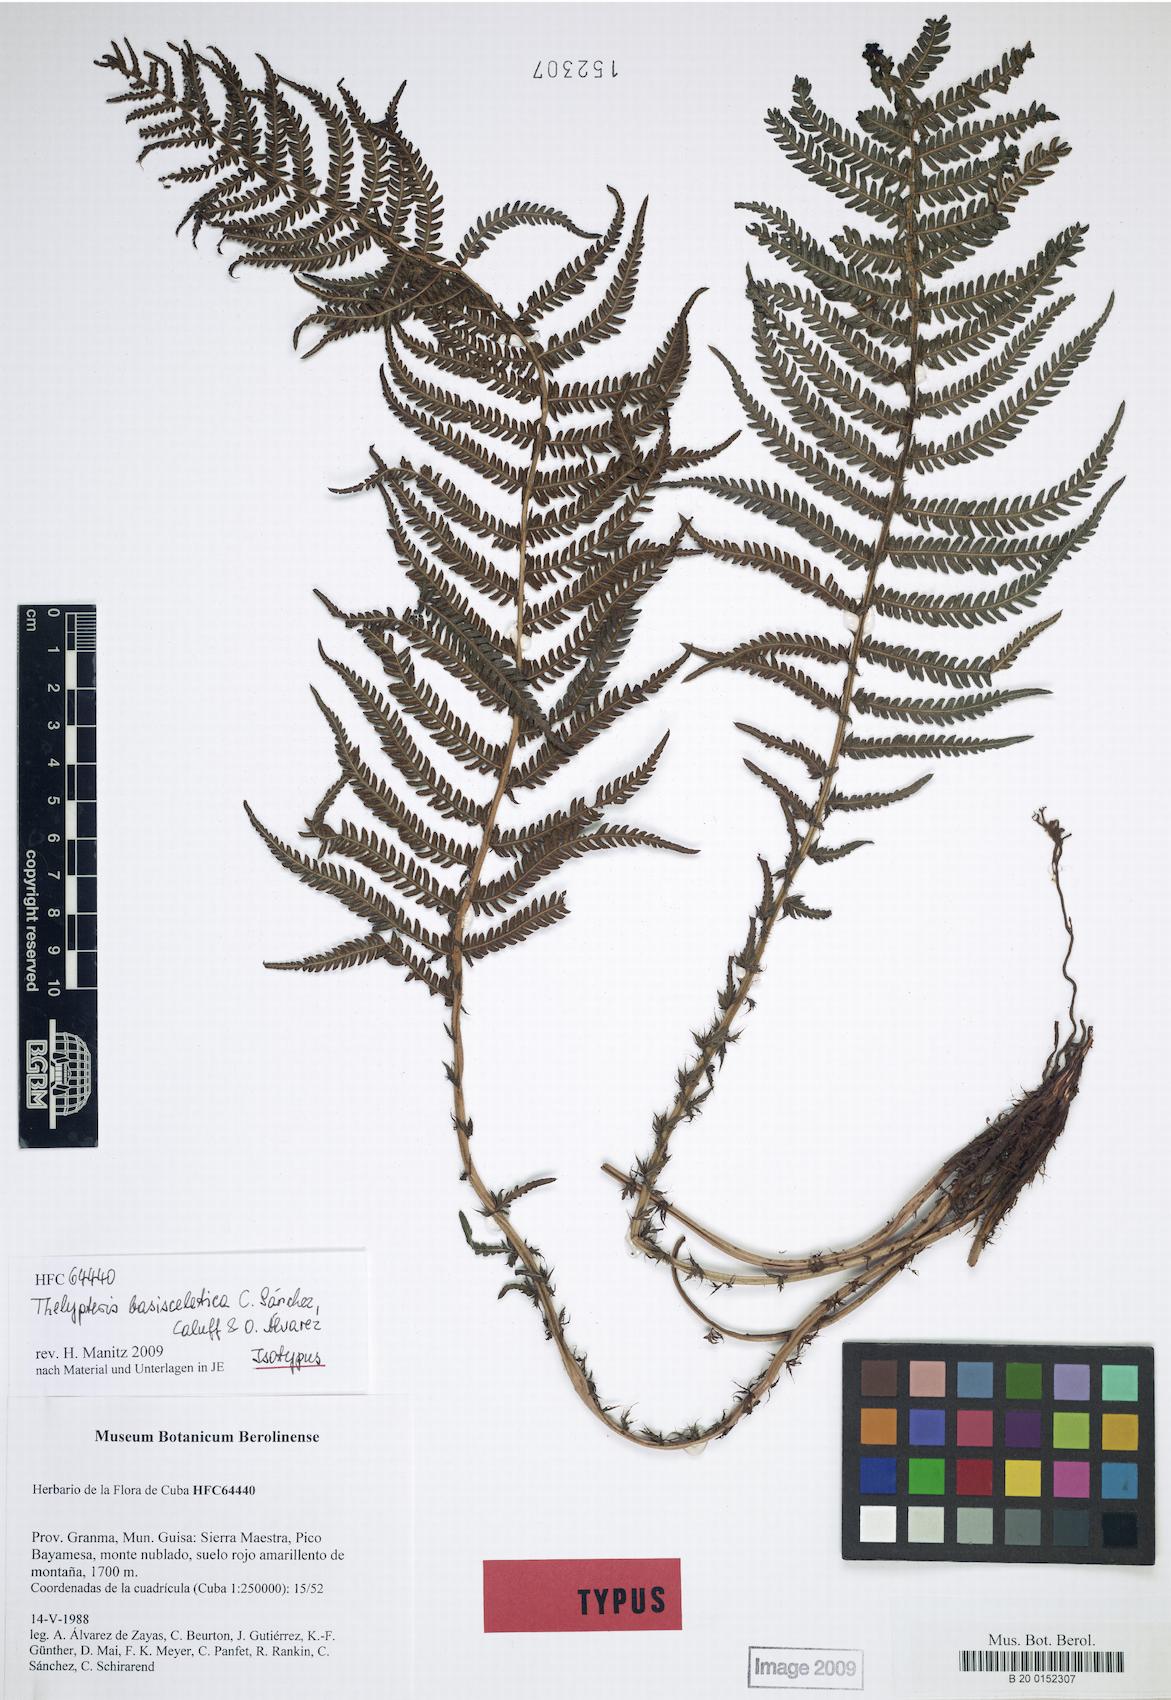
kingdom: Plantae
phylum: Tracheophyta
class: Polypodiopsida
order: Polypodiales
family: Thelypteridaceae
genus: Amauropelta
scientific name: Amauropelta basisceletica
